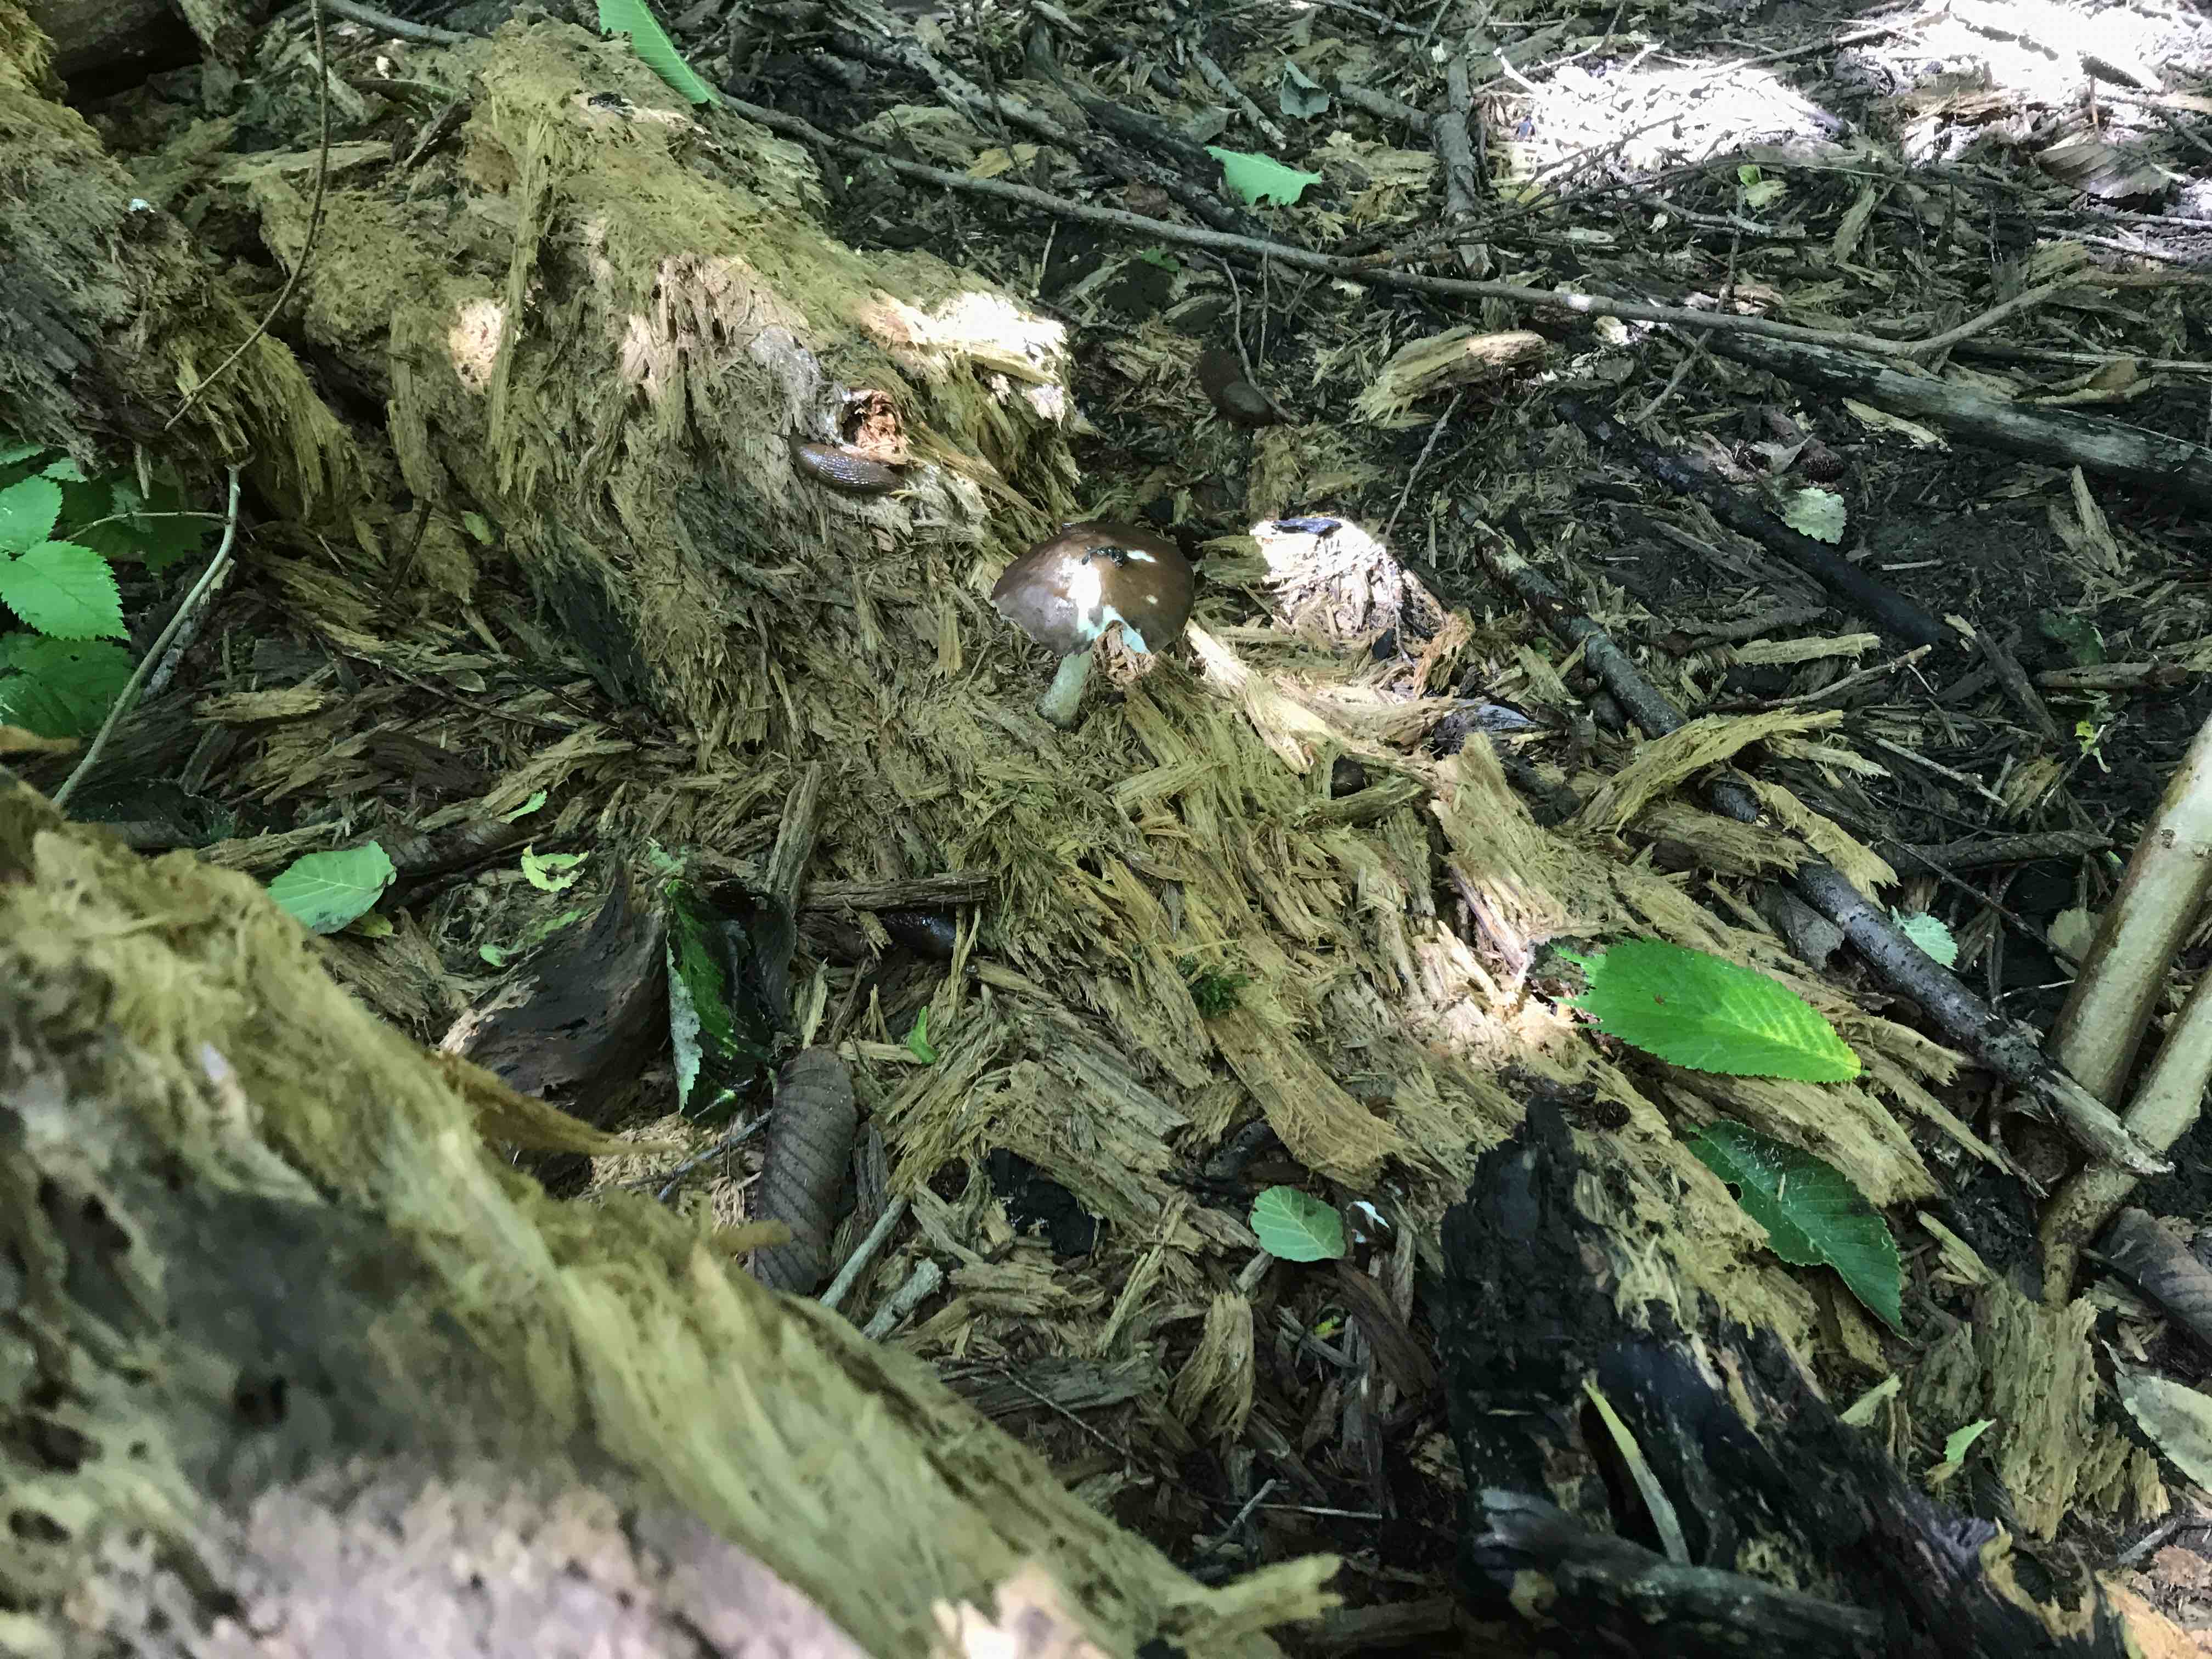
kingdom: Fungi
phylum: Basidiomycota
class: Agaricomycetes
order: Agaricales
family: Pluteaceae
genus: Pluteus
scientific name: Pluteus cervinus
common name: sodfarvet skærmhat
